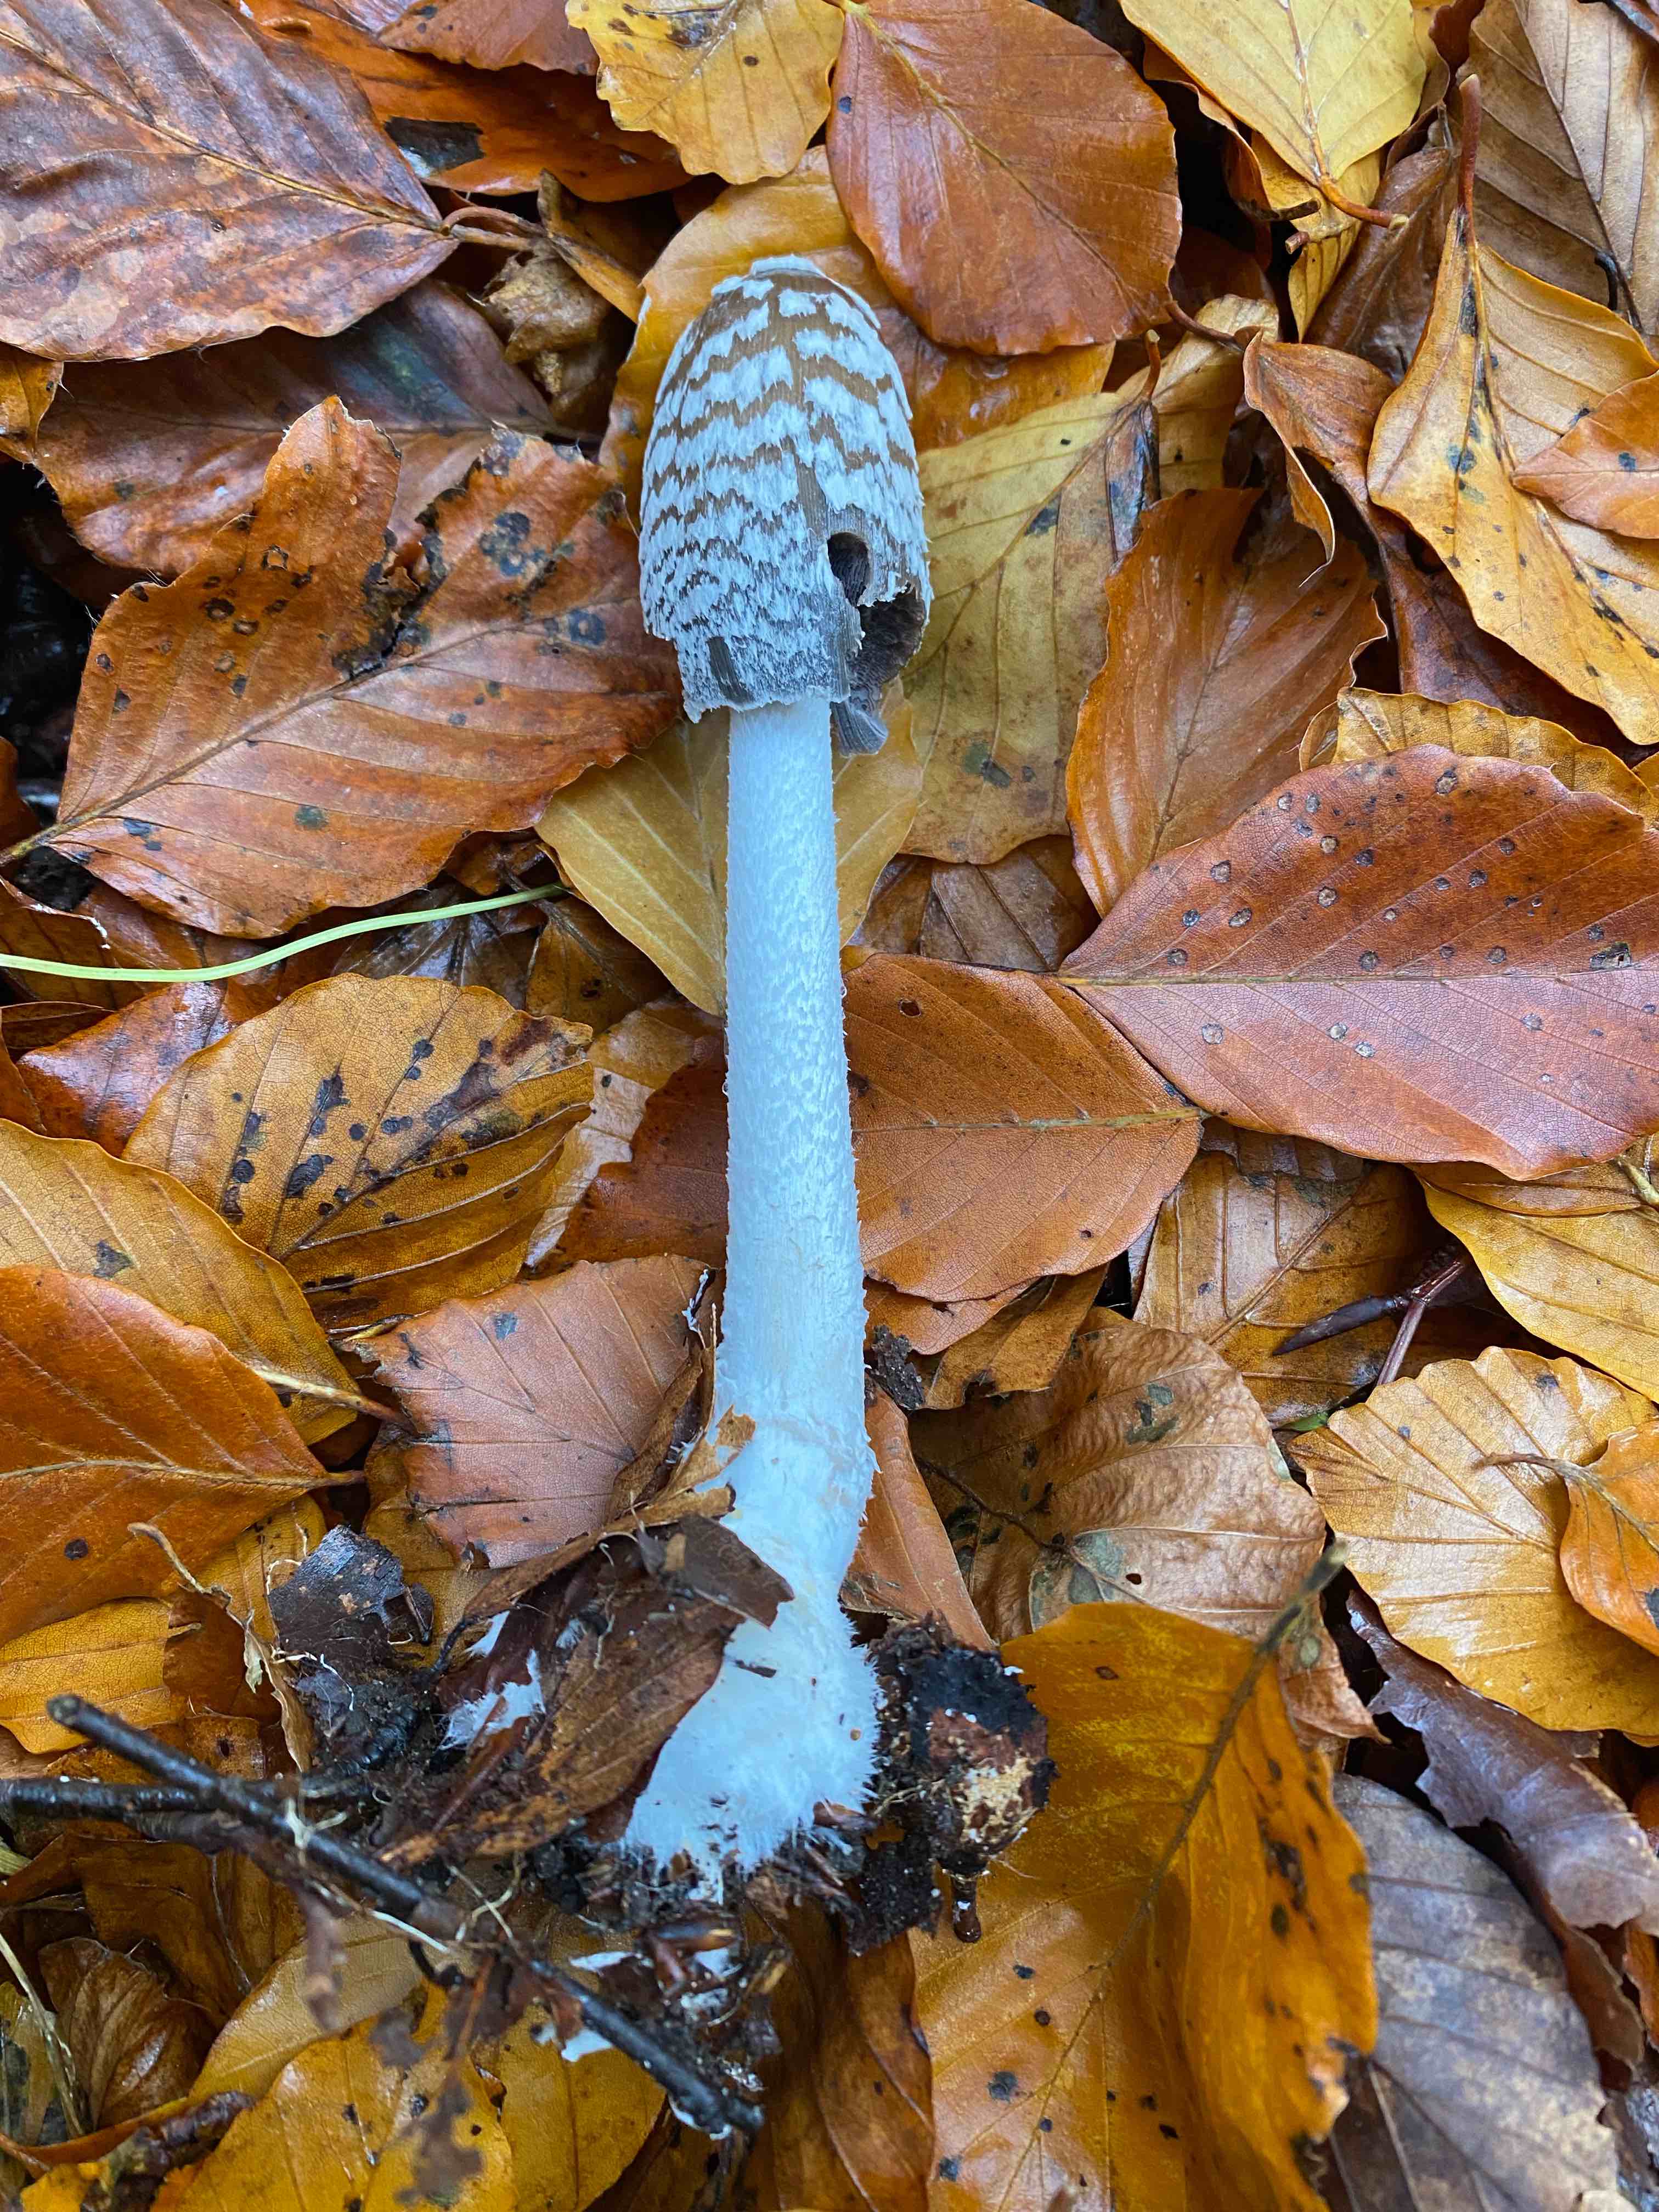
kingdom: Fungi
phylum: Basidiomycota
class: Agaricomycetes
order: Agaricales
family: Psathyrellaceae
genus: Coprinopsis
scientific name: Coprinopsis picacea
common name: skade-blækhat
